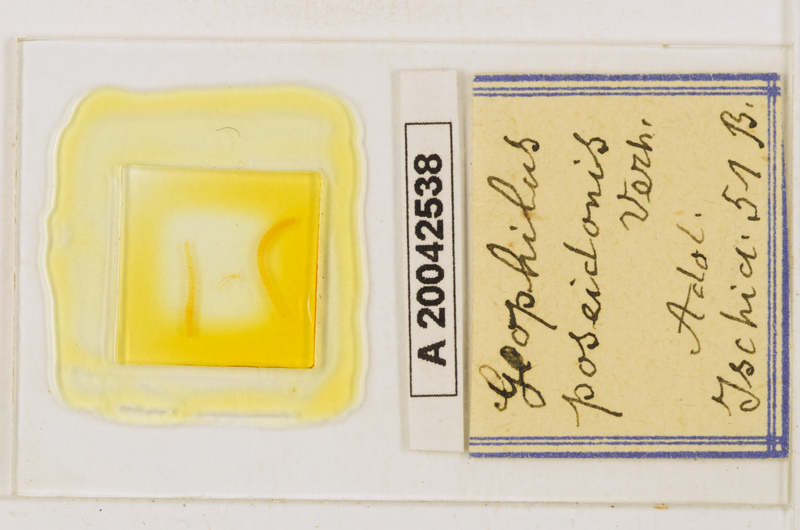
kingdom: Animalia
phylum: Arthropoda
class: Chilopoda
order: Geophilomorpha
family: Geophilidae
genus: Tuoba
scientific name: Tuoba poseidonis
